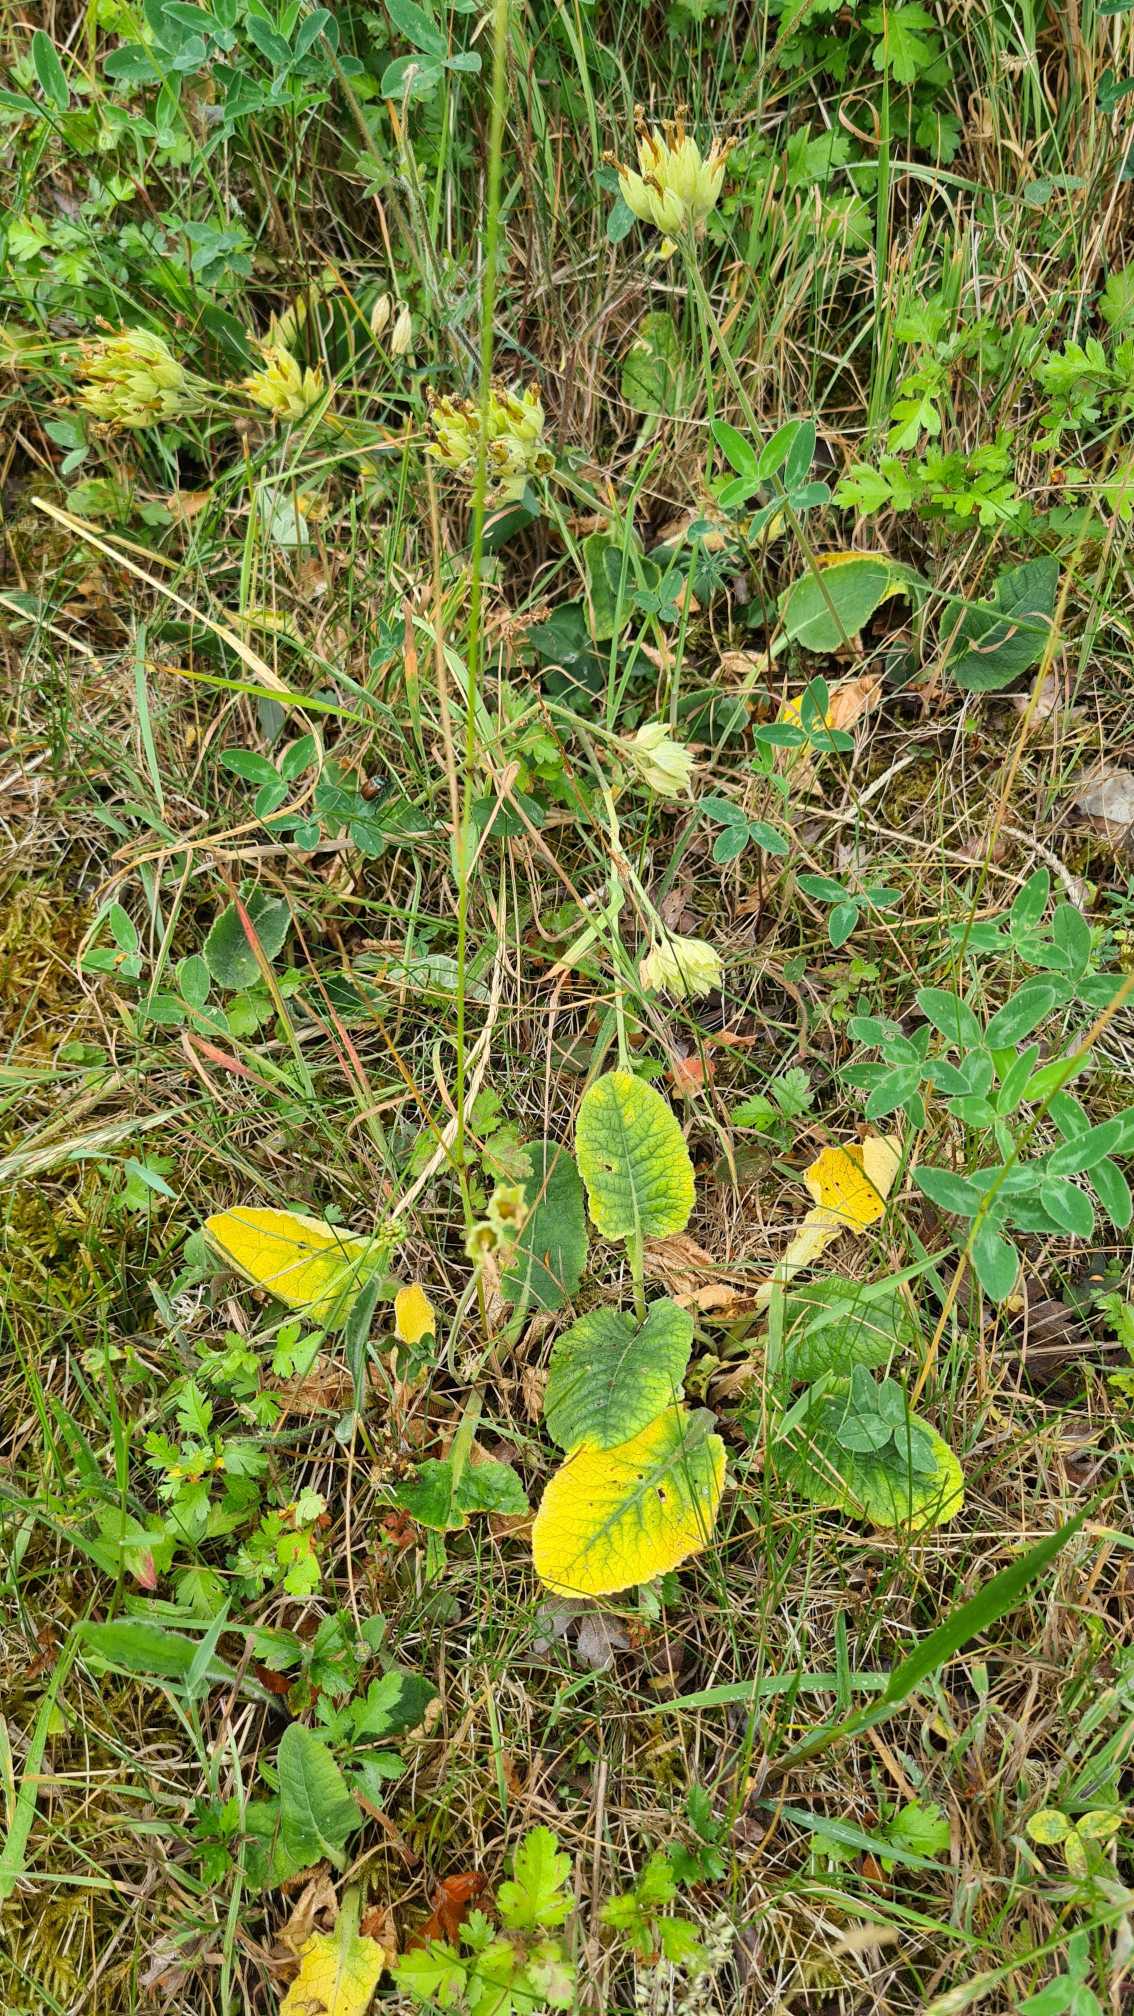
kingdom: Plantae
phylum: Tracheophyta
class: Magnoliopsida
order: Ericales
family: Primulaceae
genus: Primula
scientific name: Primula veris
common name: Hulkravet kodriver
